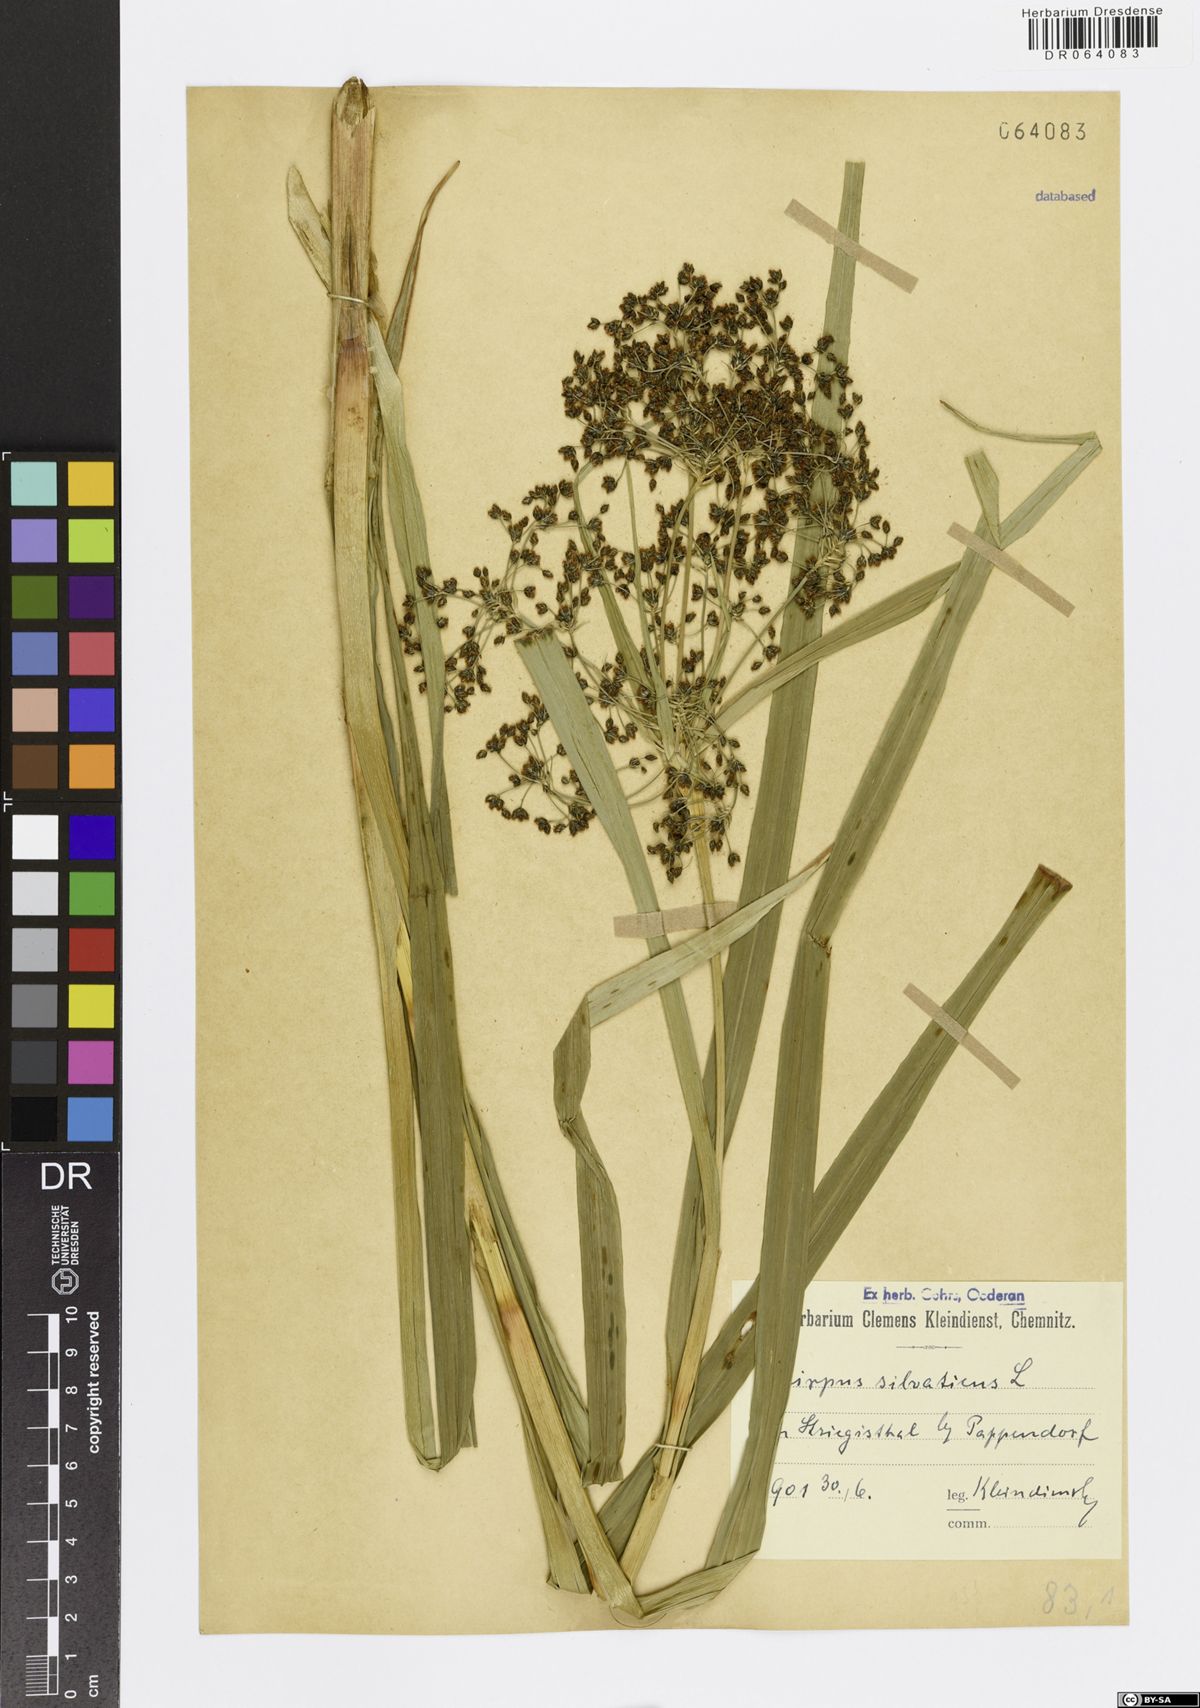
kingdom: Plantae
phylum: Tracheophyta
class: Liliopsida
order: Poales
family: Cyperaceae
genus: Scirpus
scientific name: Scirpus sylvaticus
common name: Wood club-rush
